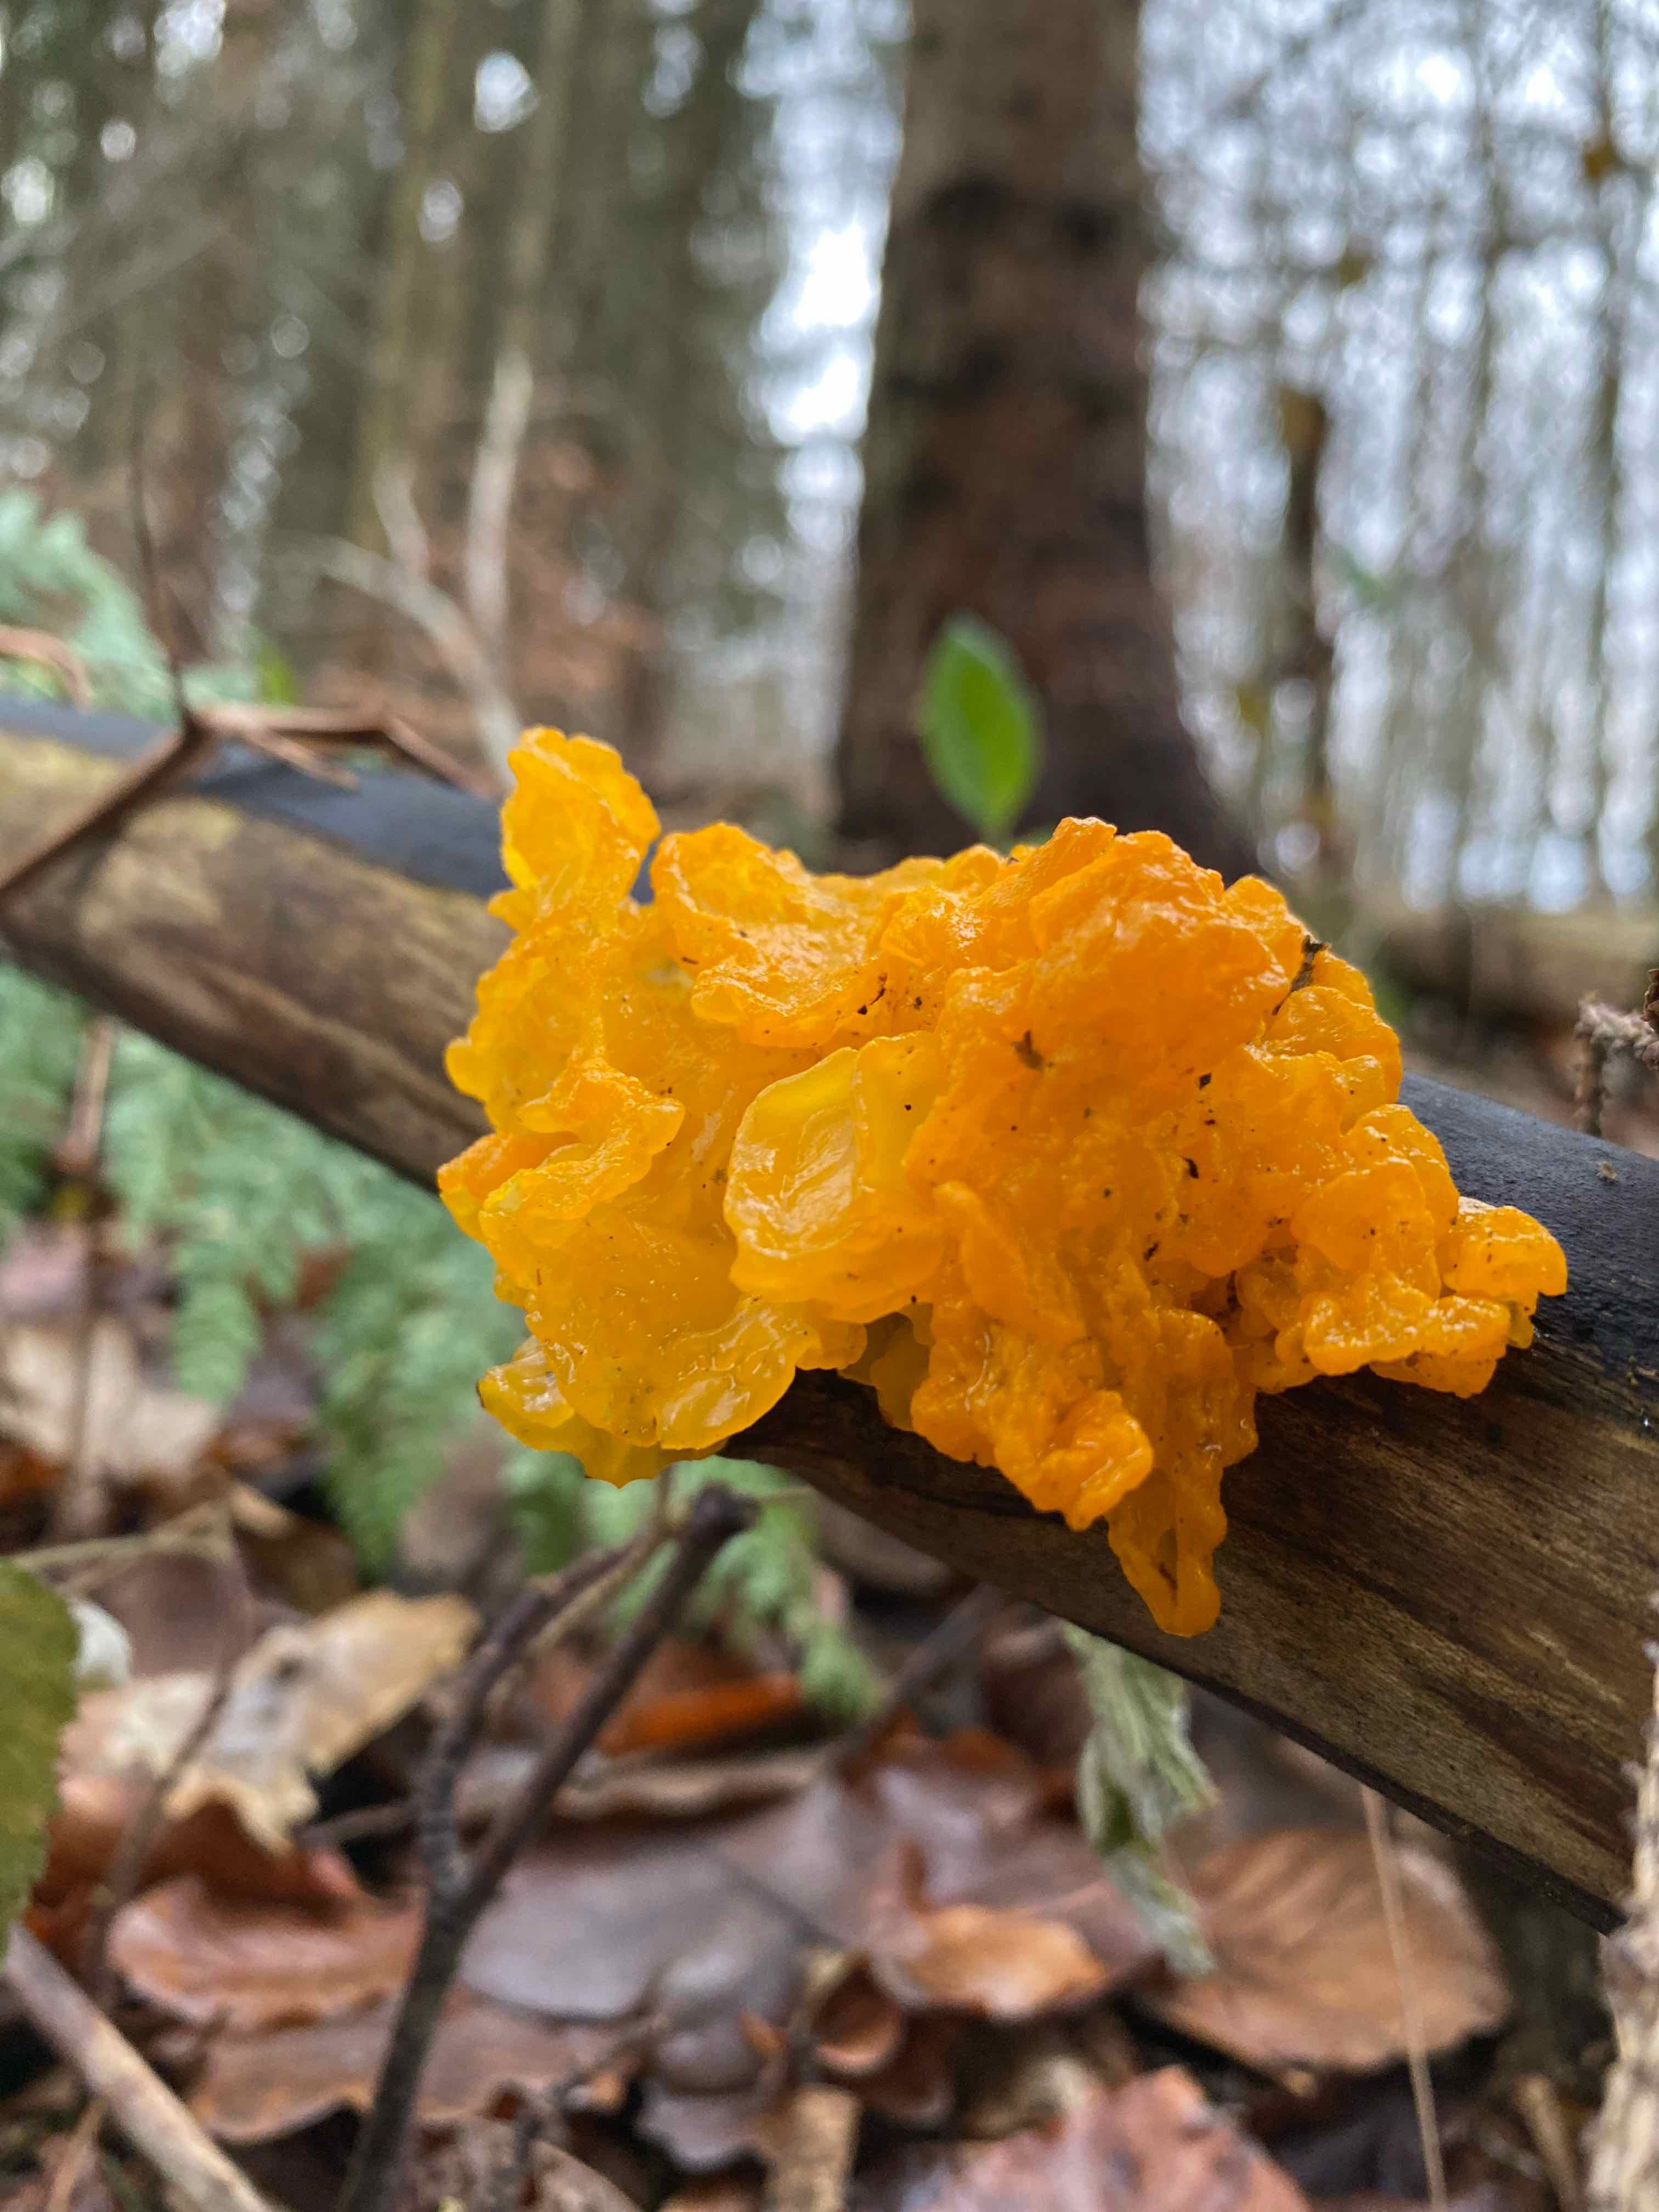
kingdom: Fungi
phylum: Basidiomycota
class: Tremellomycetes
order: Tremellales
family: Tremellaceae
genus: Tremella
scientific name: Tremella mesenterica
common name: gul bævresvamp
